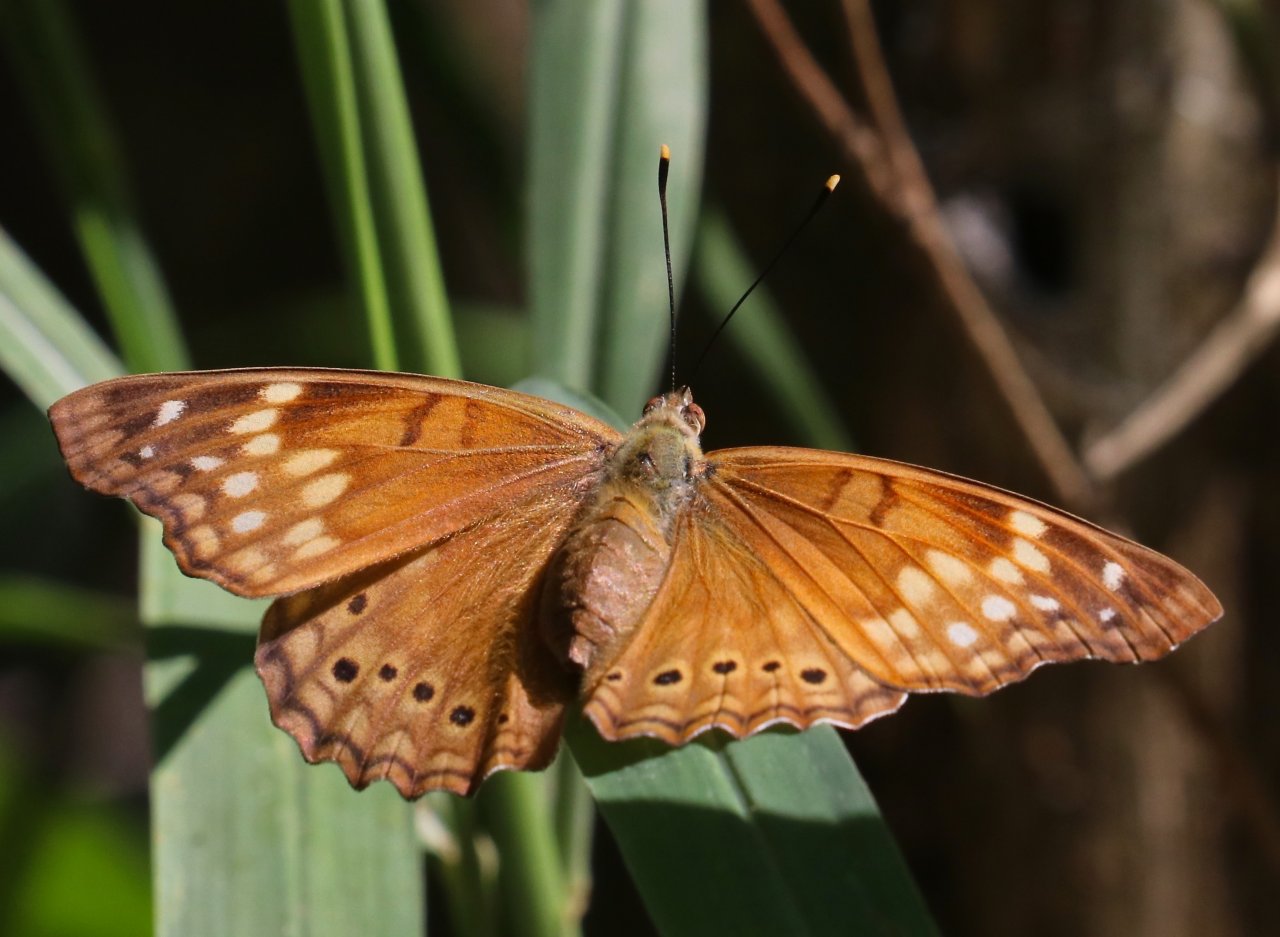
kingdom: Animalia
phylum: Arthropoda
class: Insecta
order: Lepidoptera
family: Nymphalidae
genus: Asterocampa
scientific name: Asterocampa clyton
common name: Tawny Emperor
